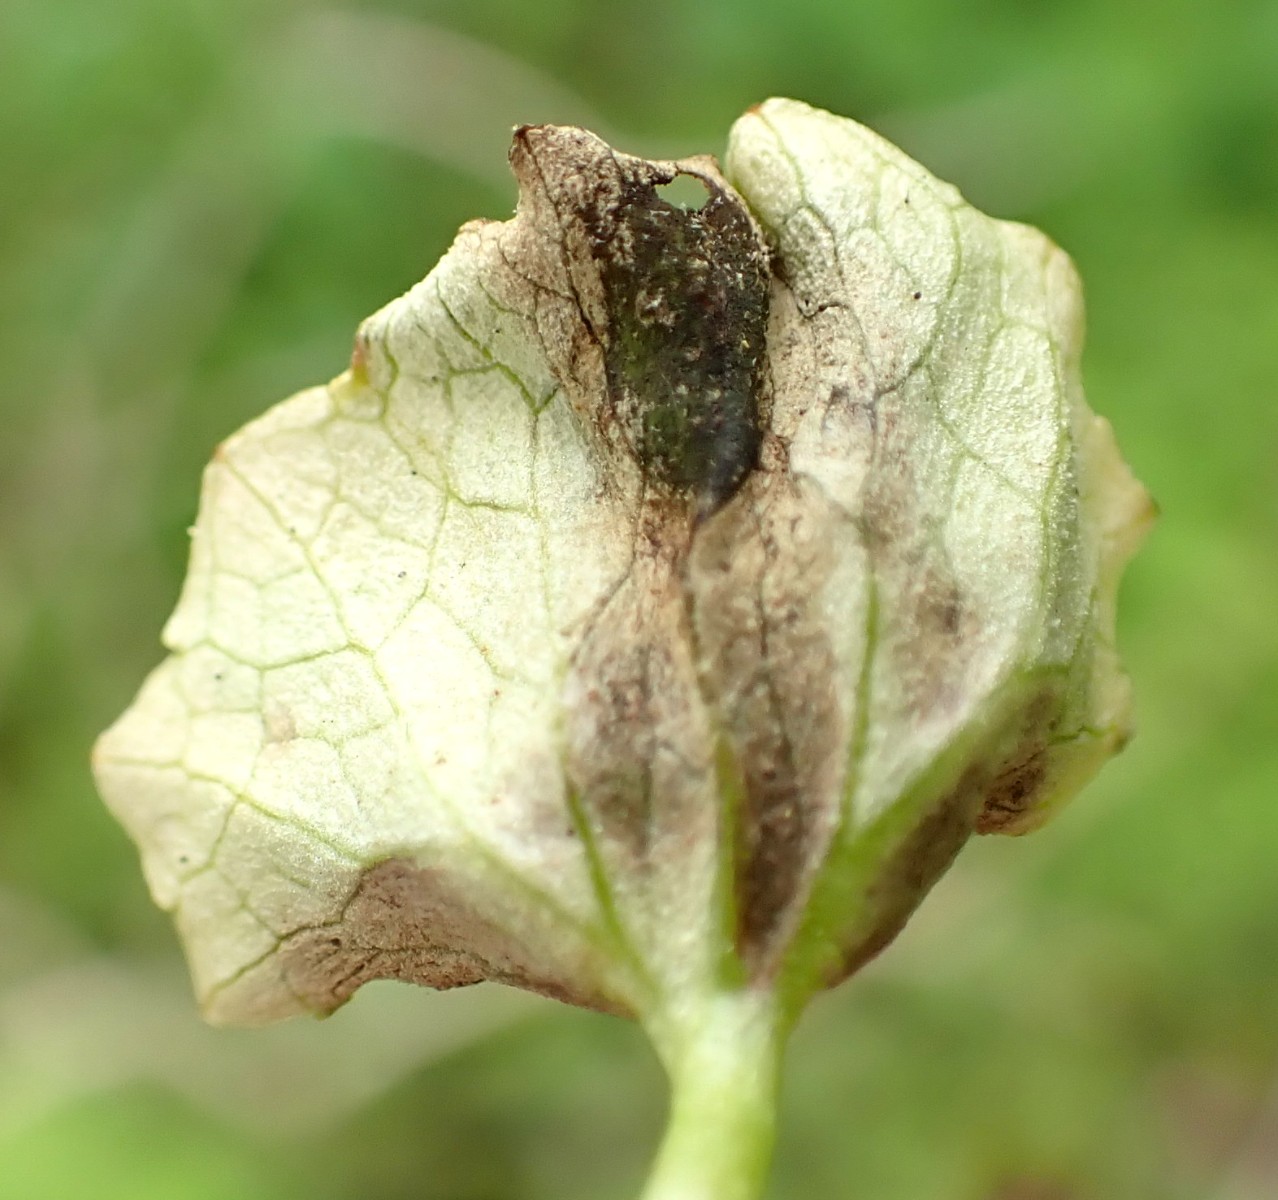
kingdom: Fungi
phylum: Basidiomycota
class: Ustilaginomycetes
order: Urocystidales
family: Urocystidaceae
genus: Urocystis
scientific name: Urocystis ficariae
